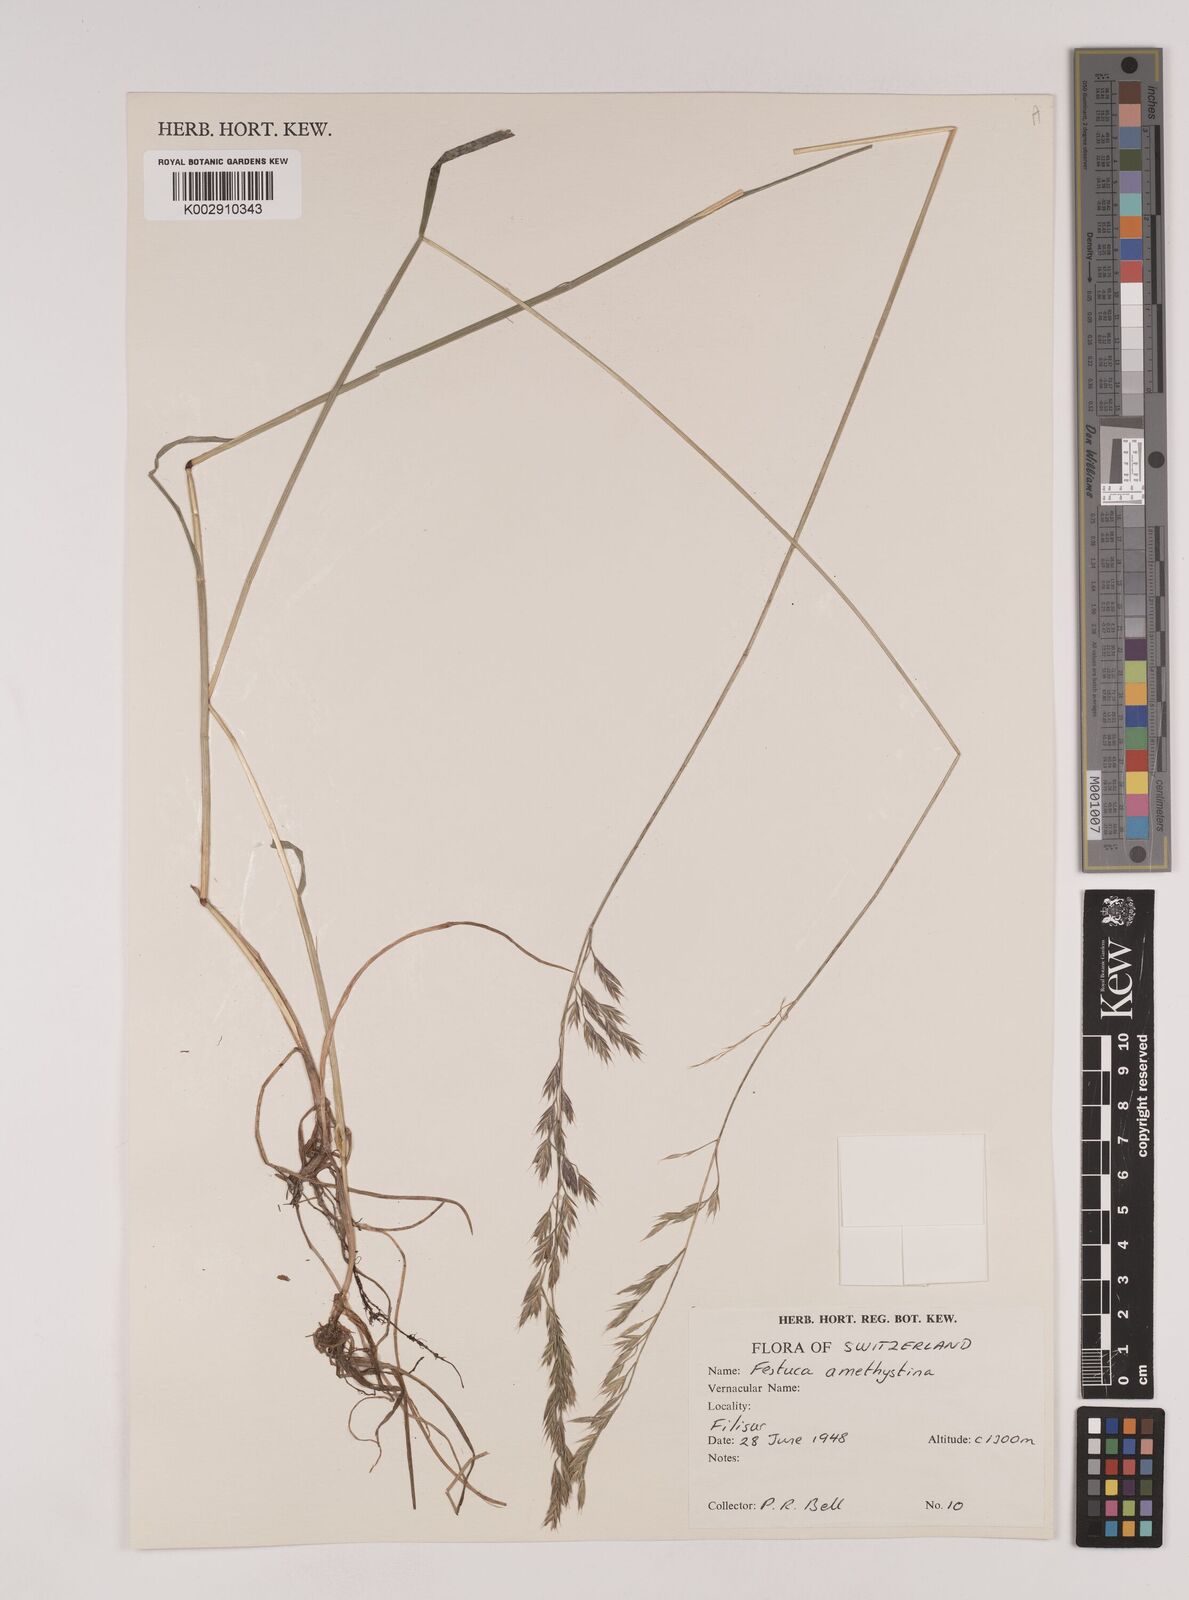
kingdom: Plantae
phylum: Tracheophyta
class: Liliopsida
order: Poales
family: Poaceae
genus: Festuca
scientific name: Festuca amethystina
